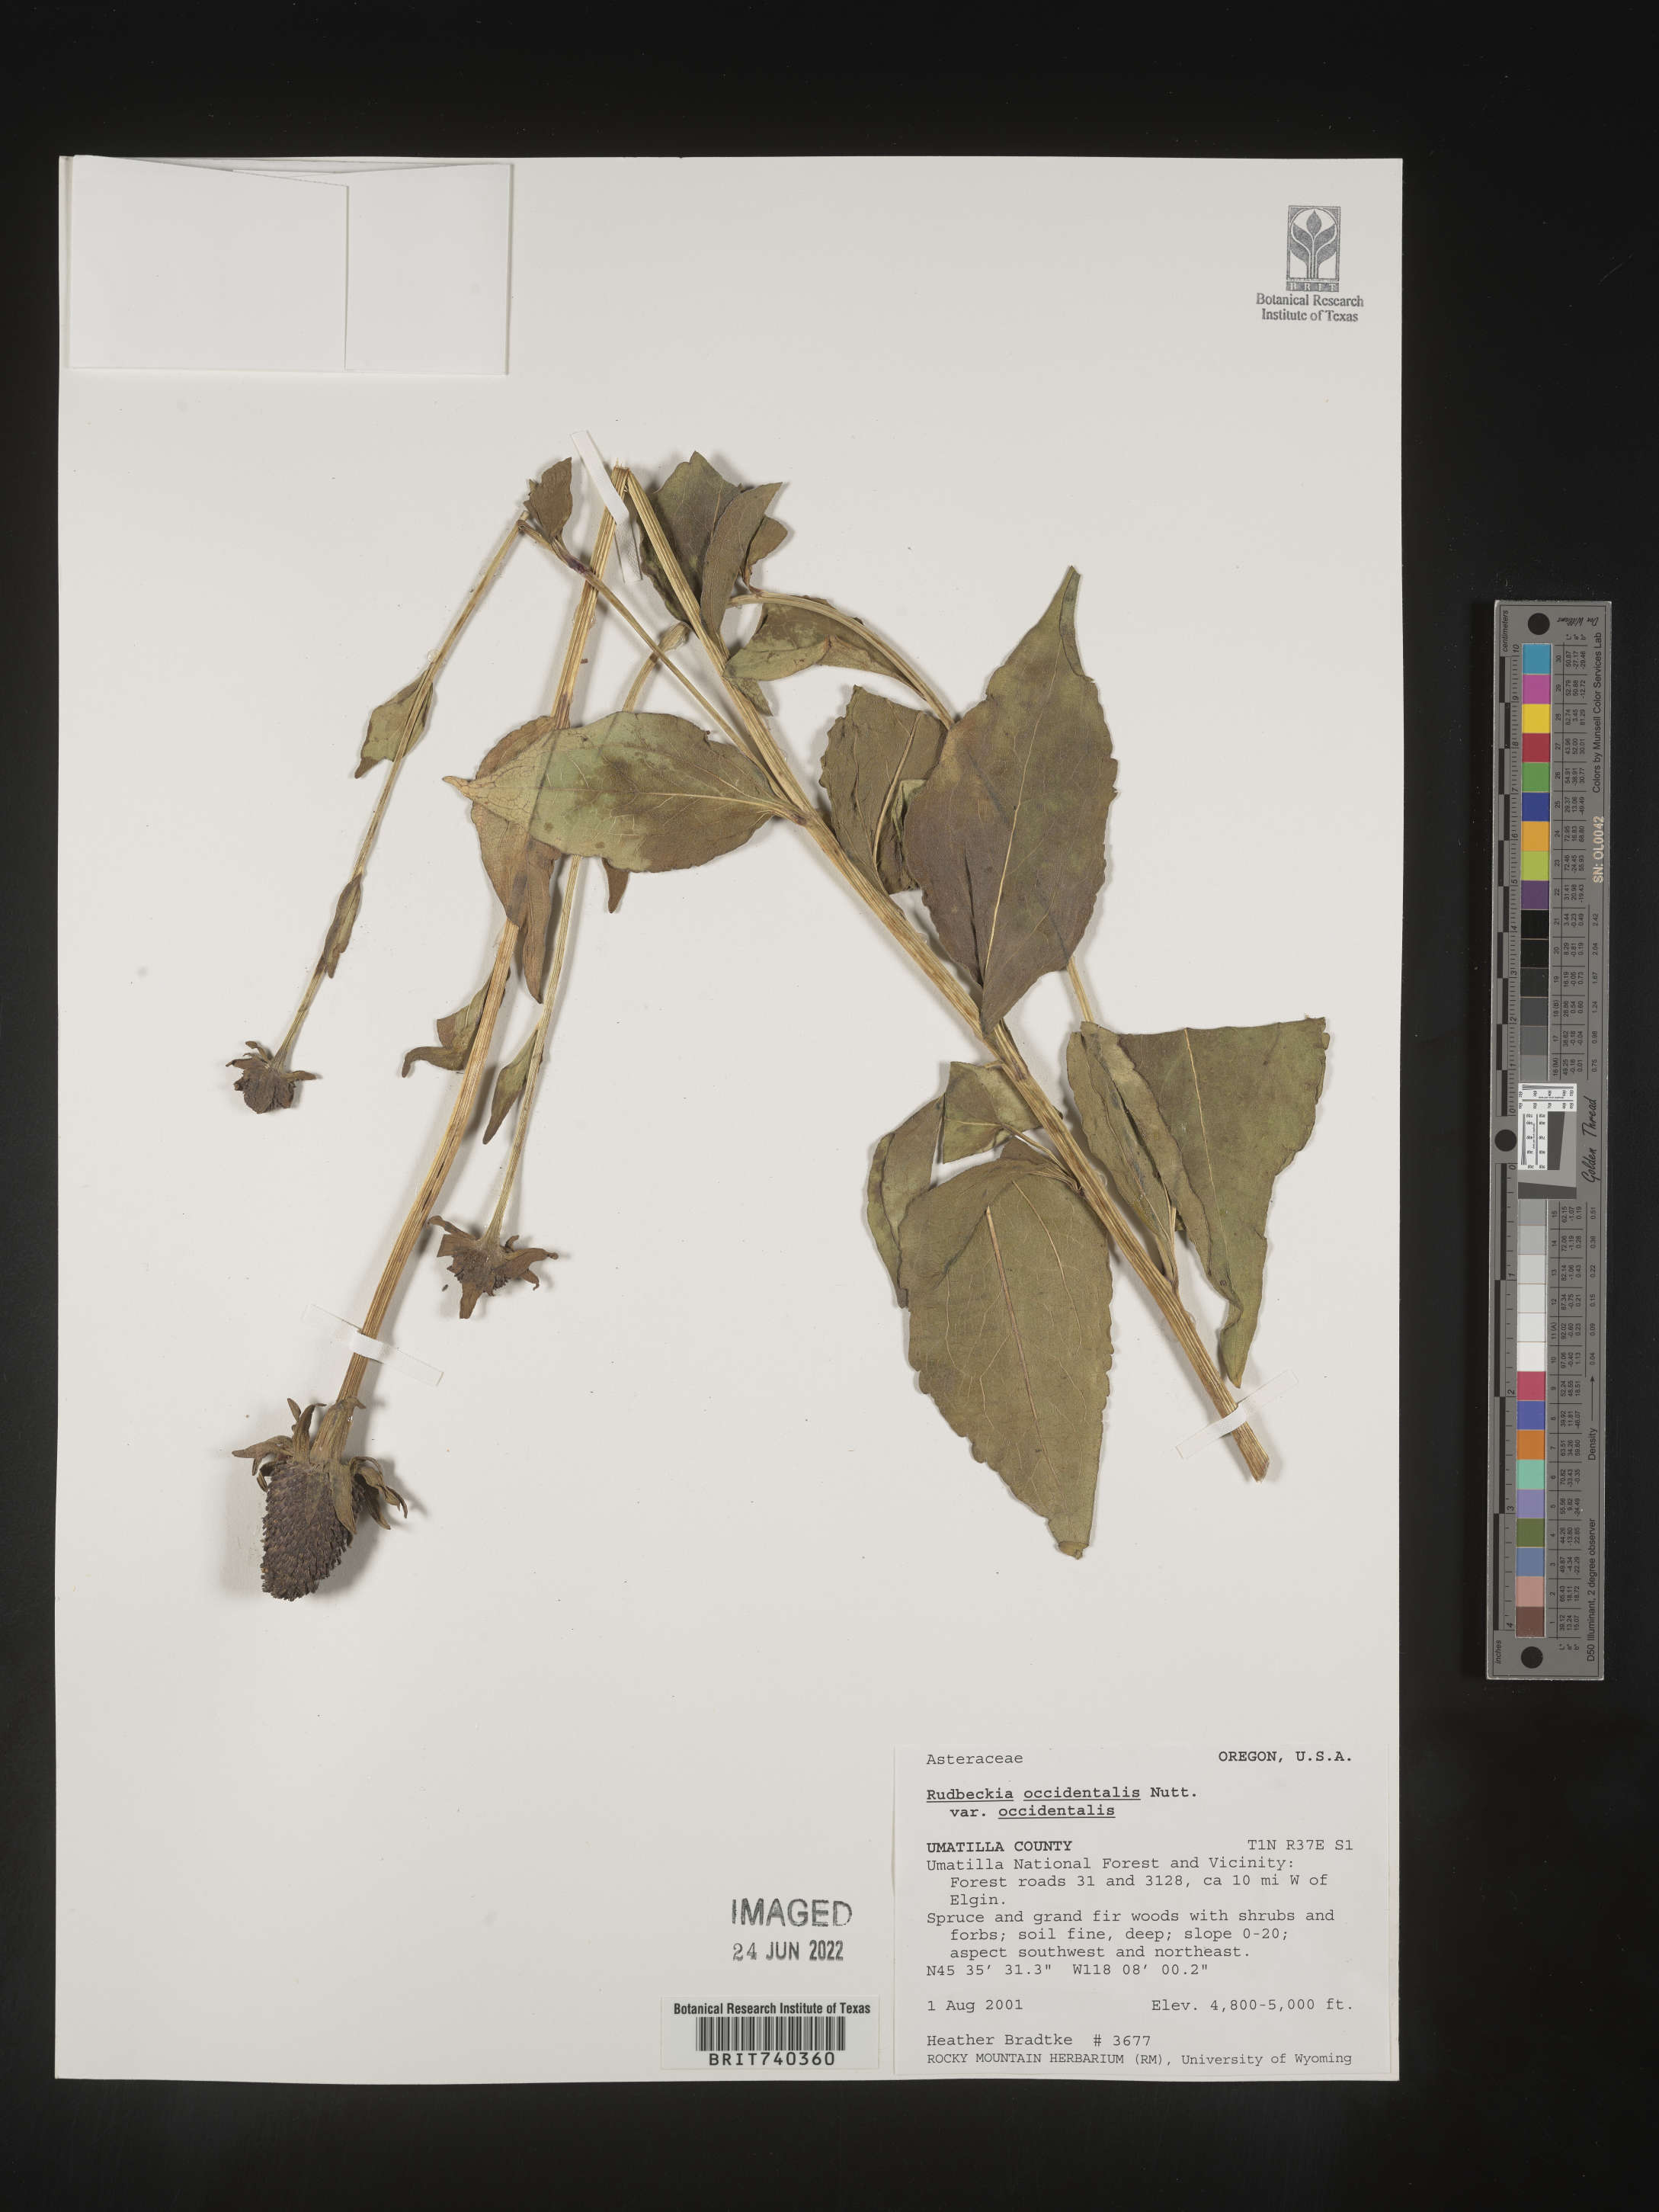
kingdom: Plantae
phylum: Tracheophyta
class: Magnoliopsida
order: Asterales
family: Asteraceae
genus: Rudbeckia
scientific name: Rudbeckia
